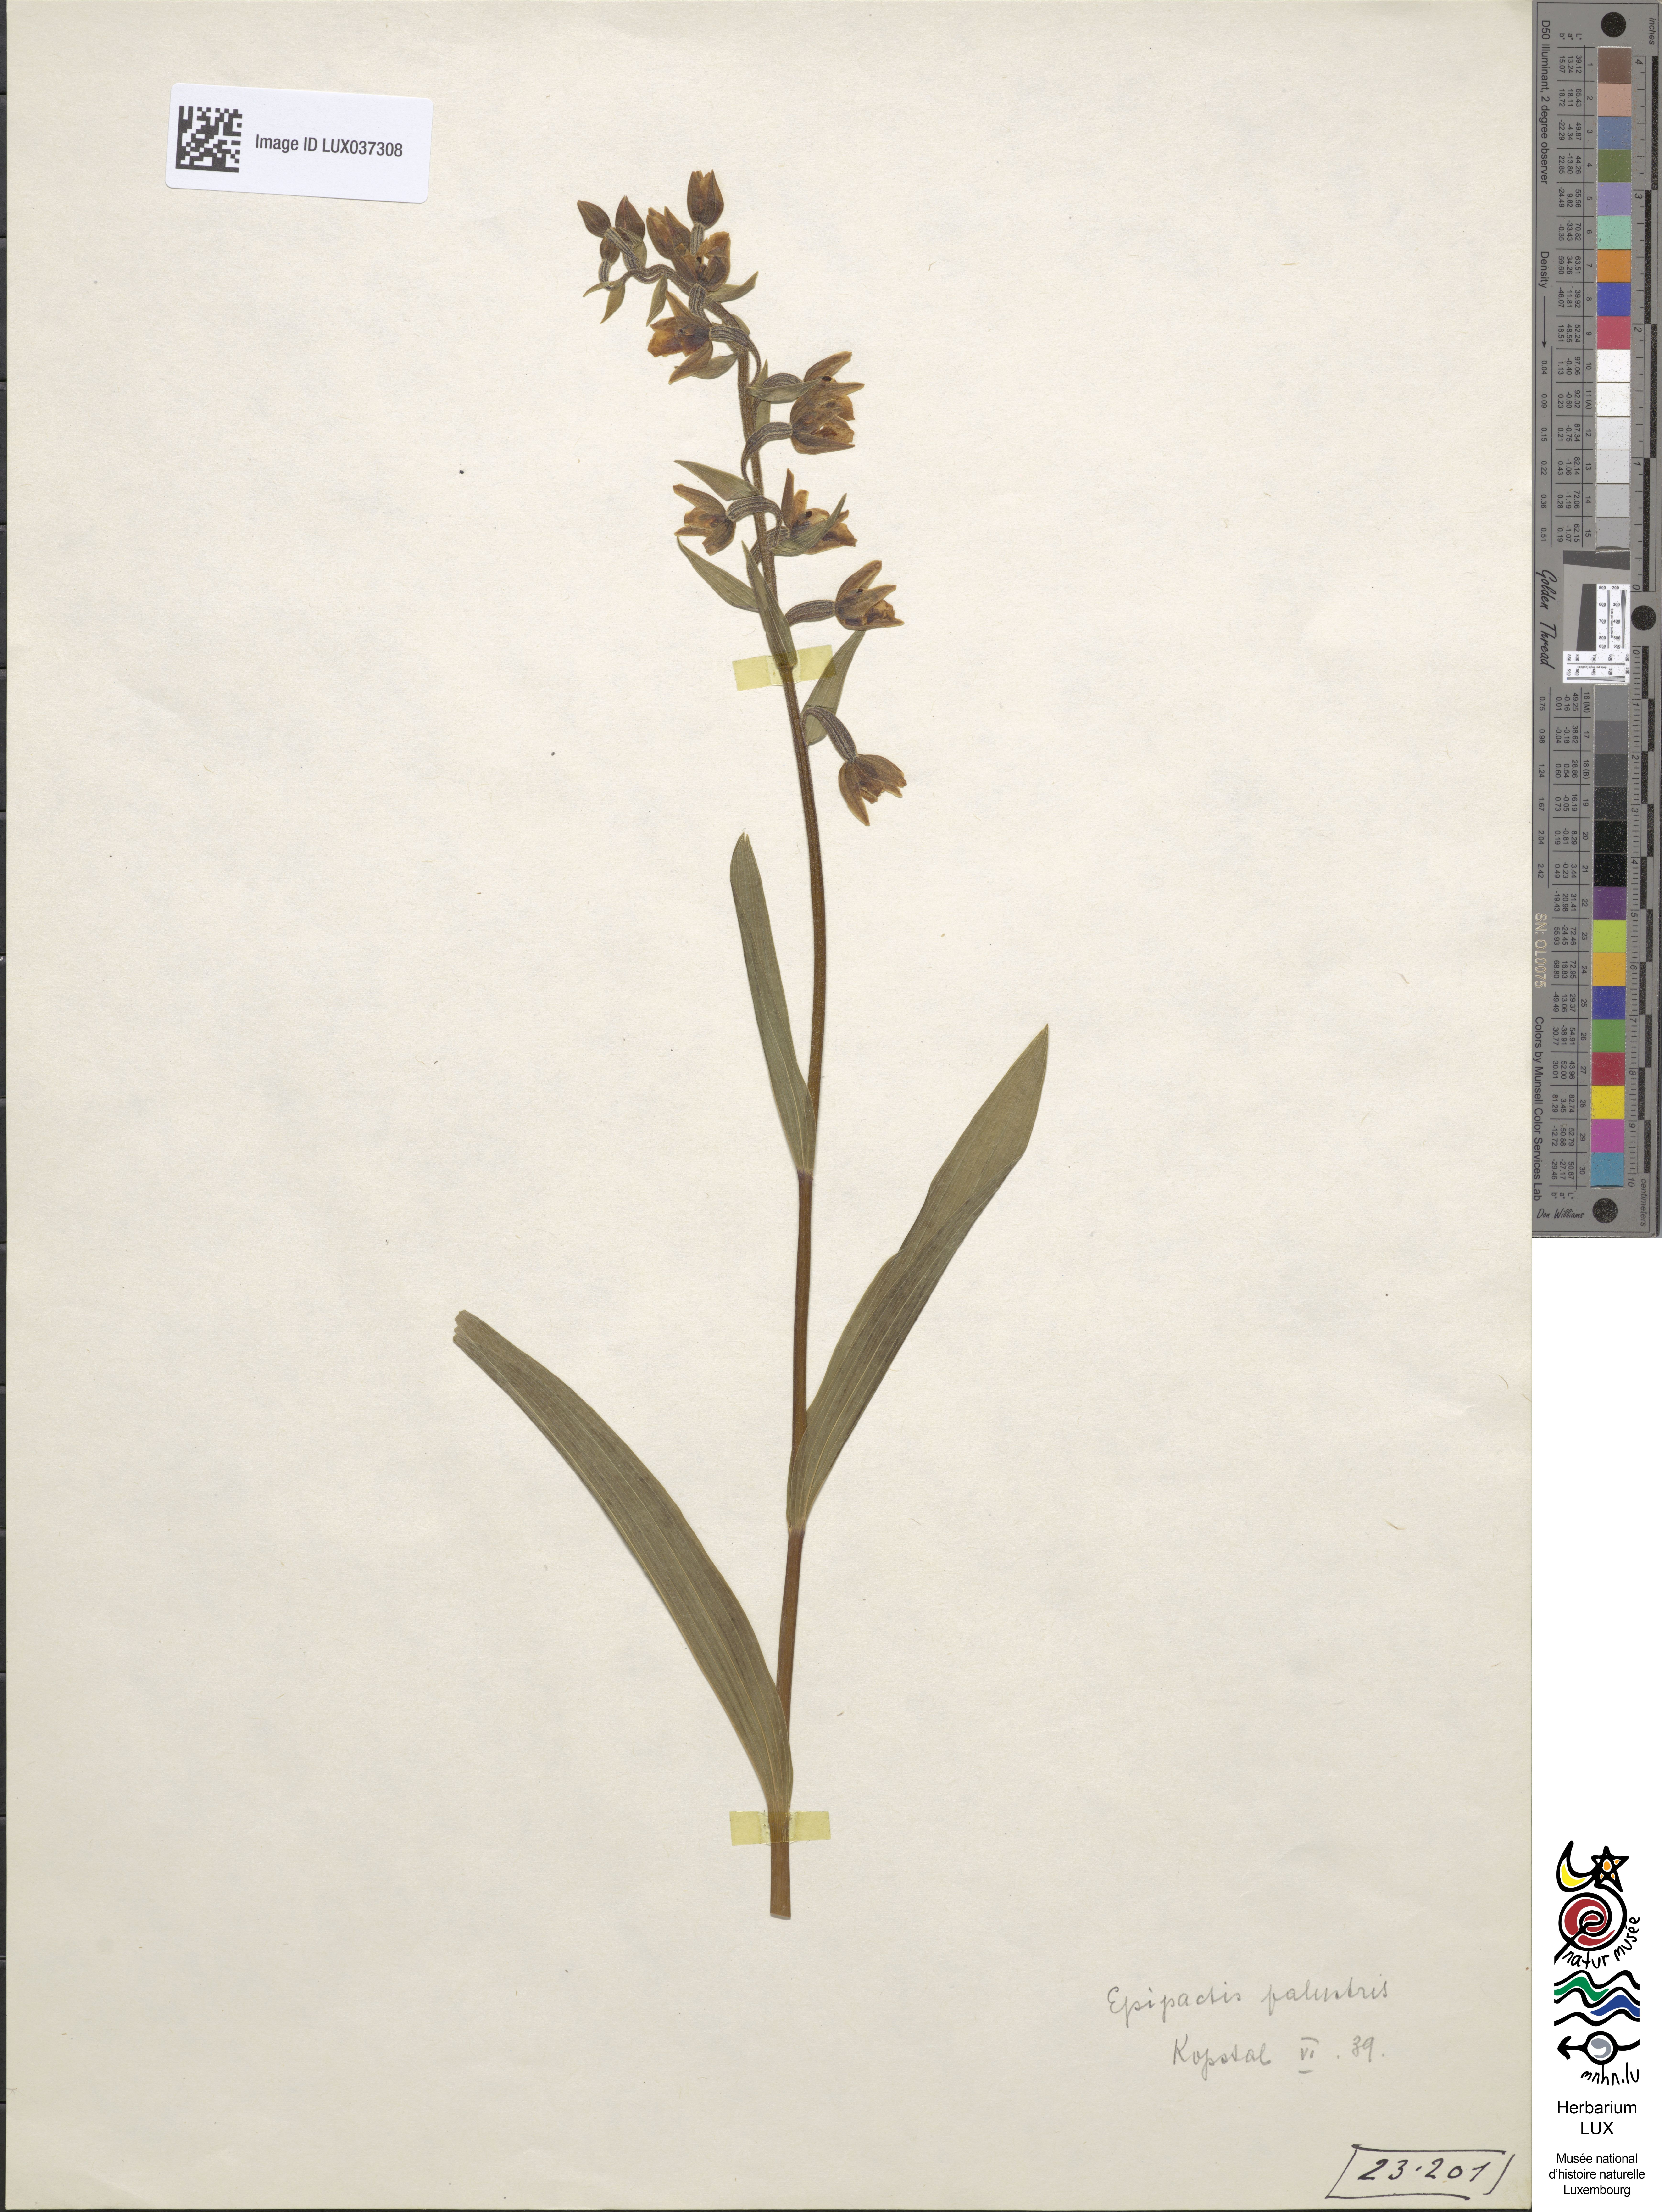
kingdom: Plantae
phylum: Tracheophyta
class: Liliopsida
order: Asparagales
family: Orchidaceae
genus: Epipactis
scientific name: Epipactis palustris
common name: Marsh helleborine
